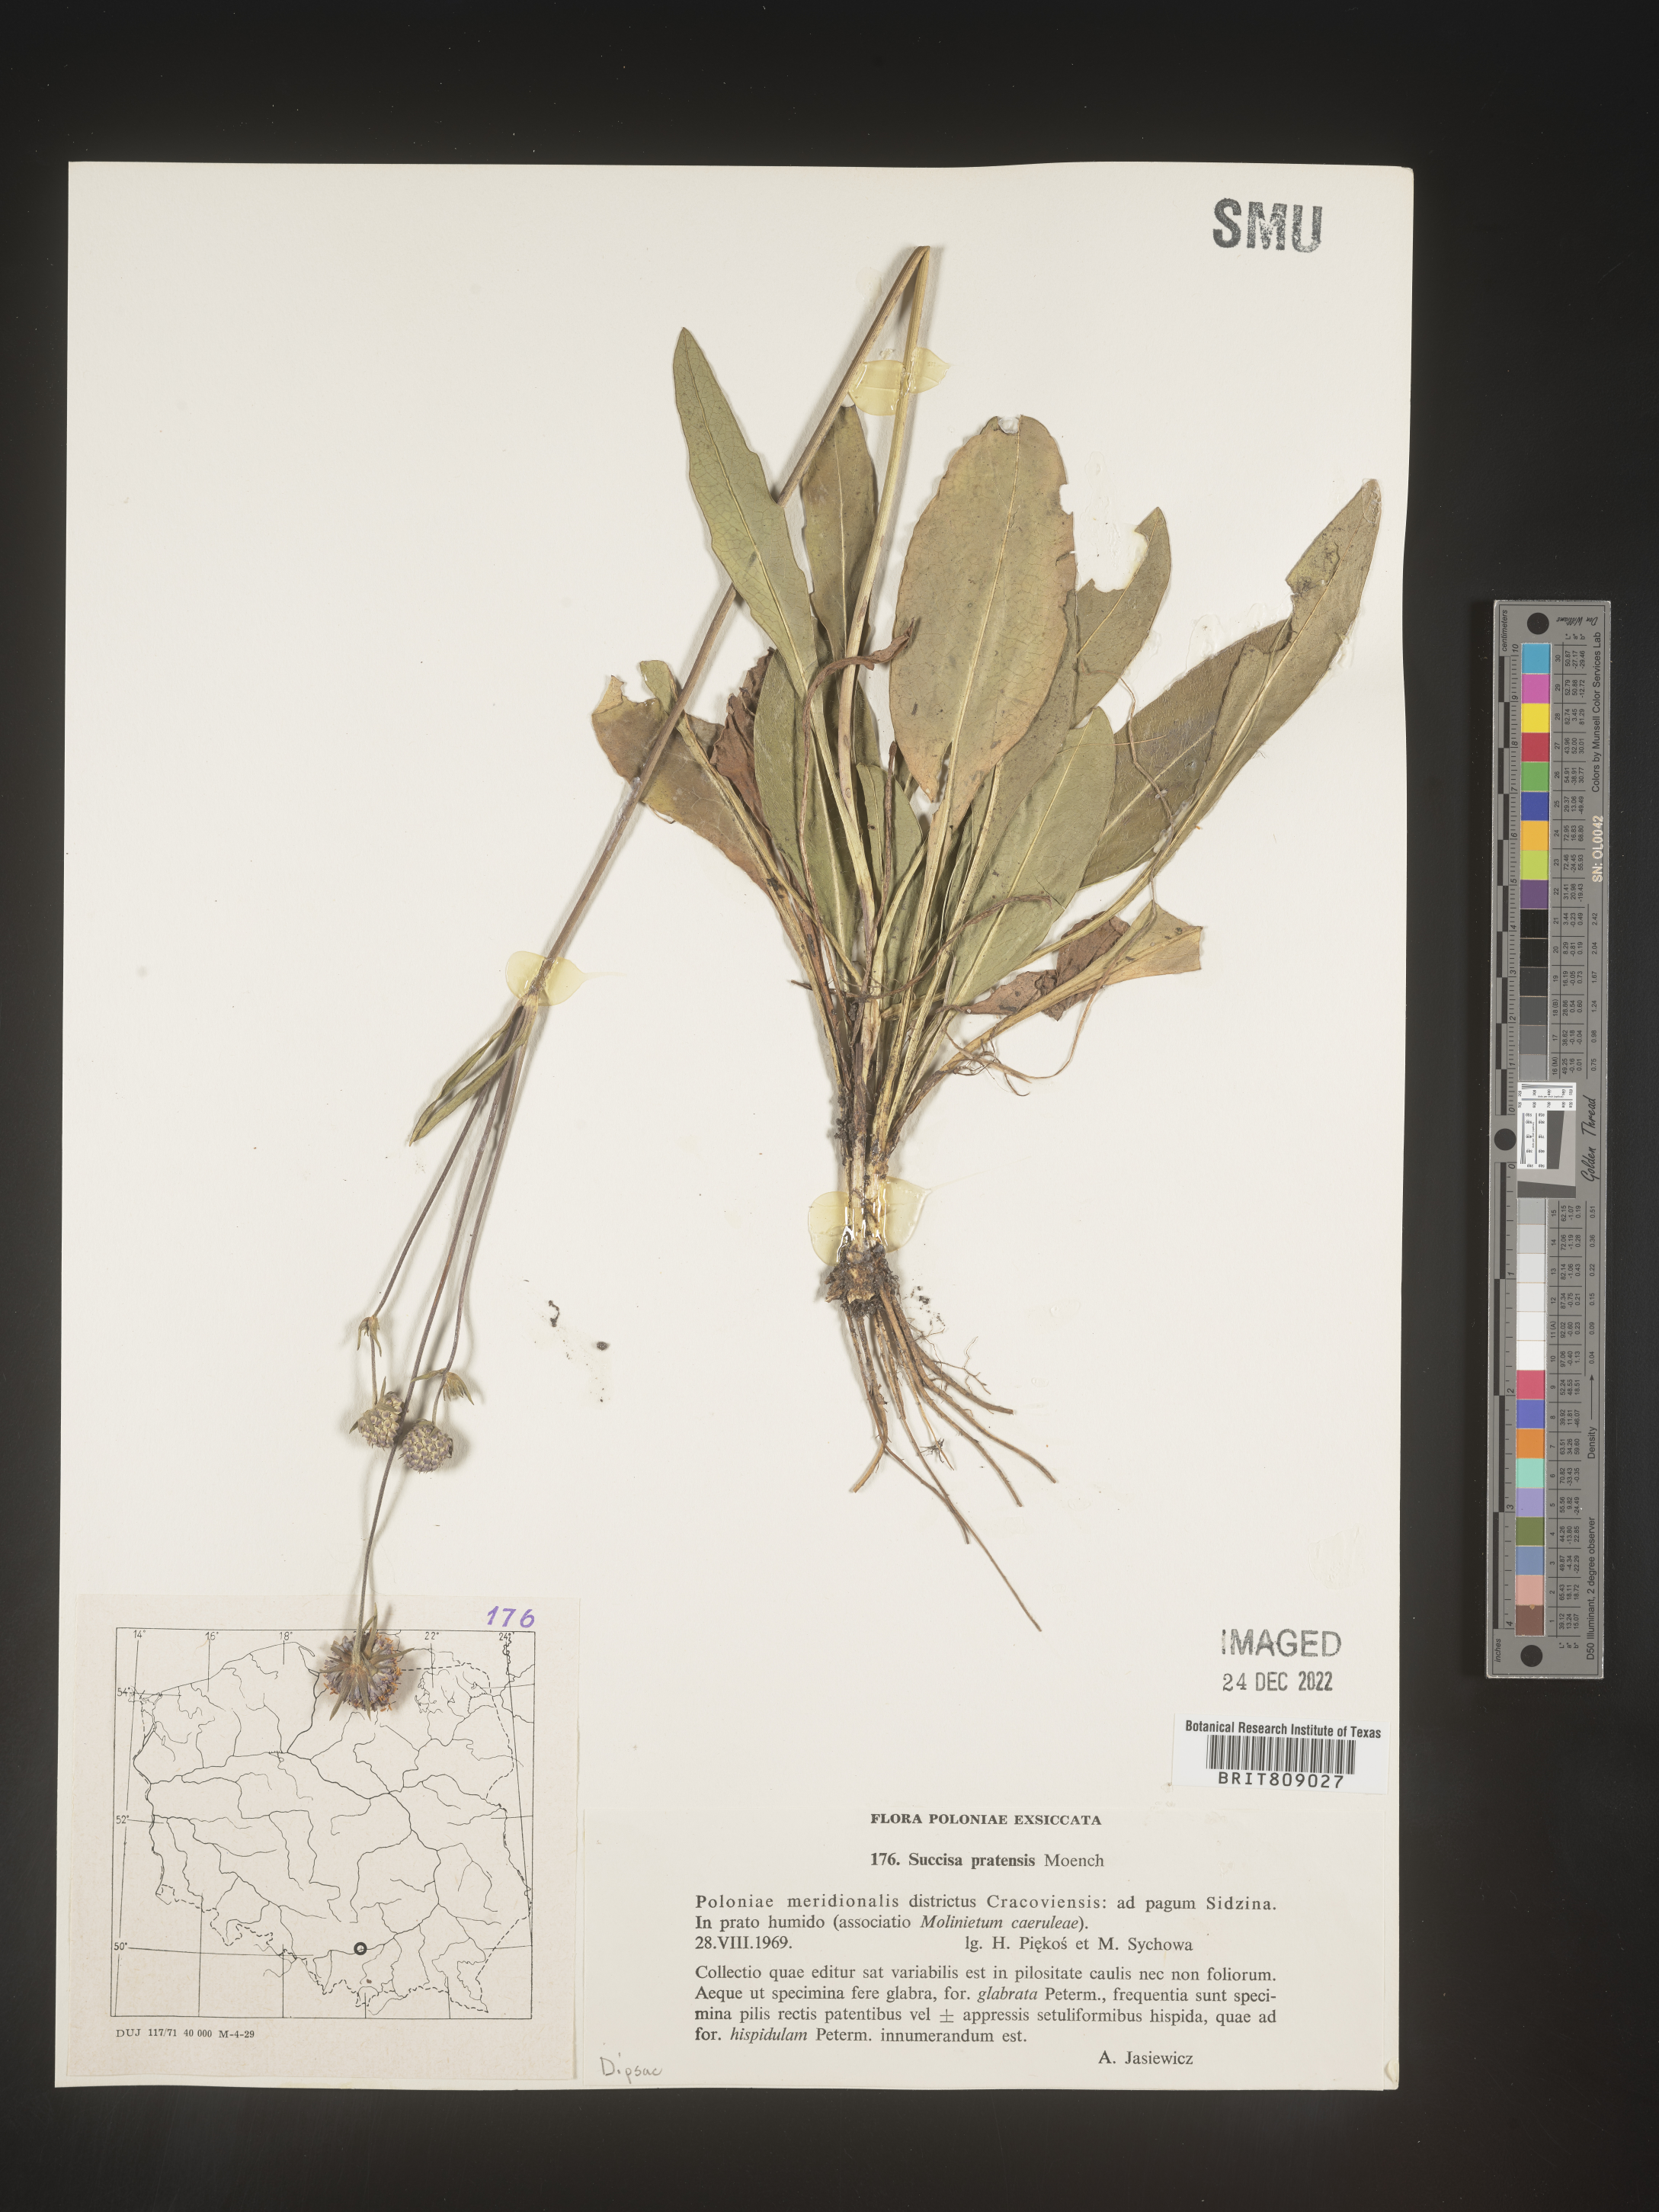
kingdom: Plantae
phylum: Tracheophyta
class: Magnoliopsida
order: Dipsacales
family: Caprifoliaceae
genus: Succisa
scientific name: Succisa
